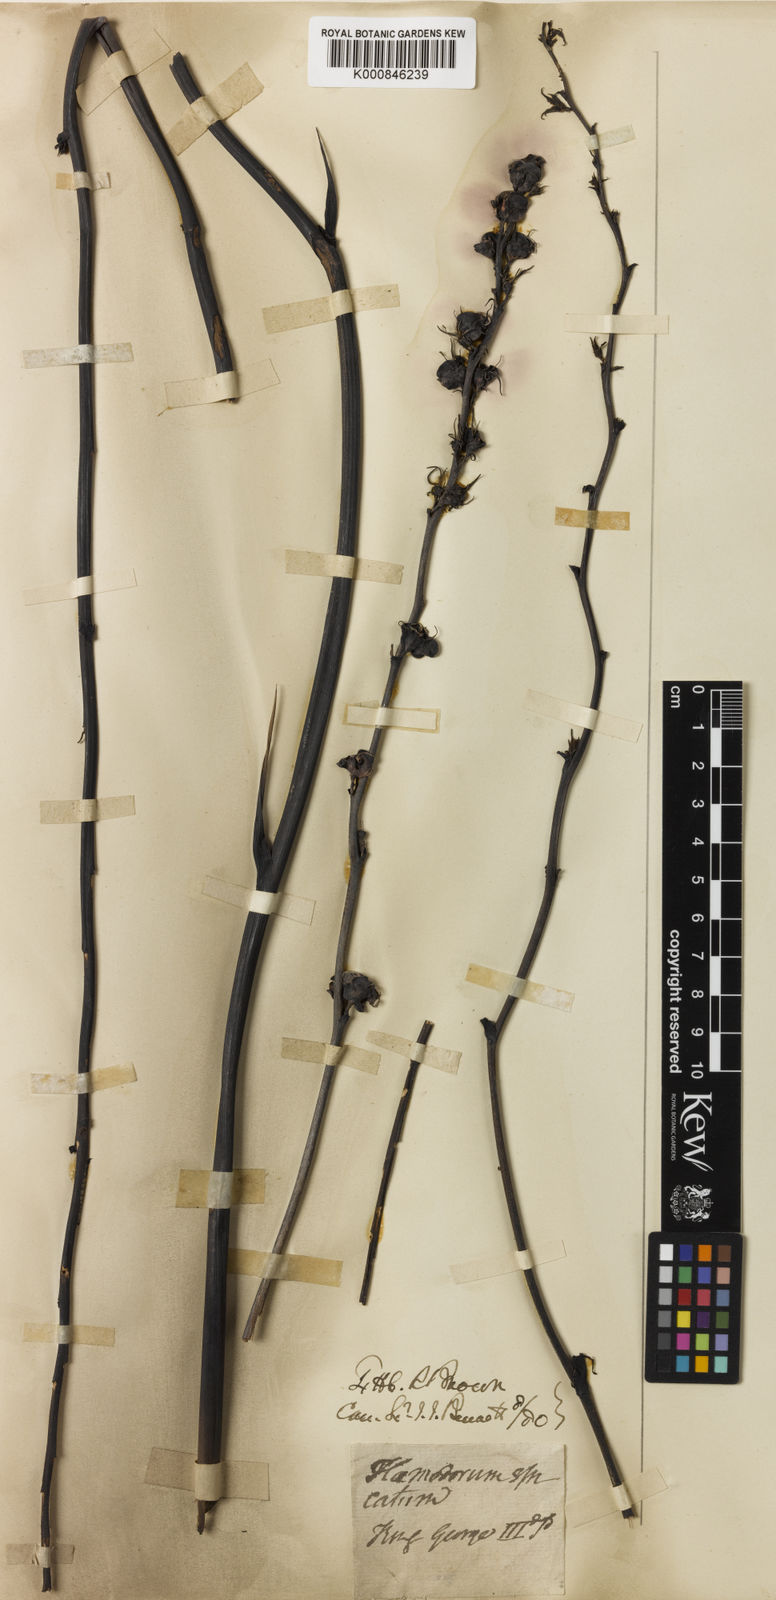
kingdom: Plantae
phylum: Tracheophyta
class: Liliopsida
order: Commelinales
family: Haemodoraceae
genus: Haemodorum
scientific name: Haemodorum spicatum
